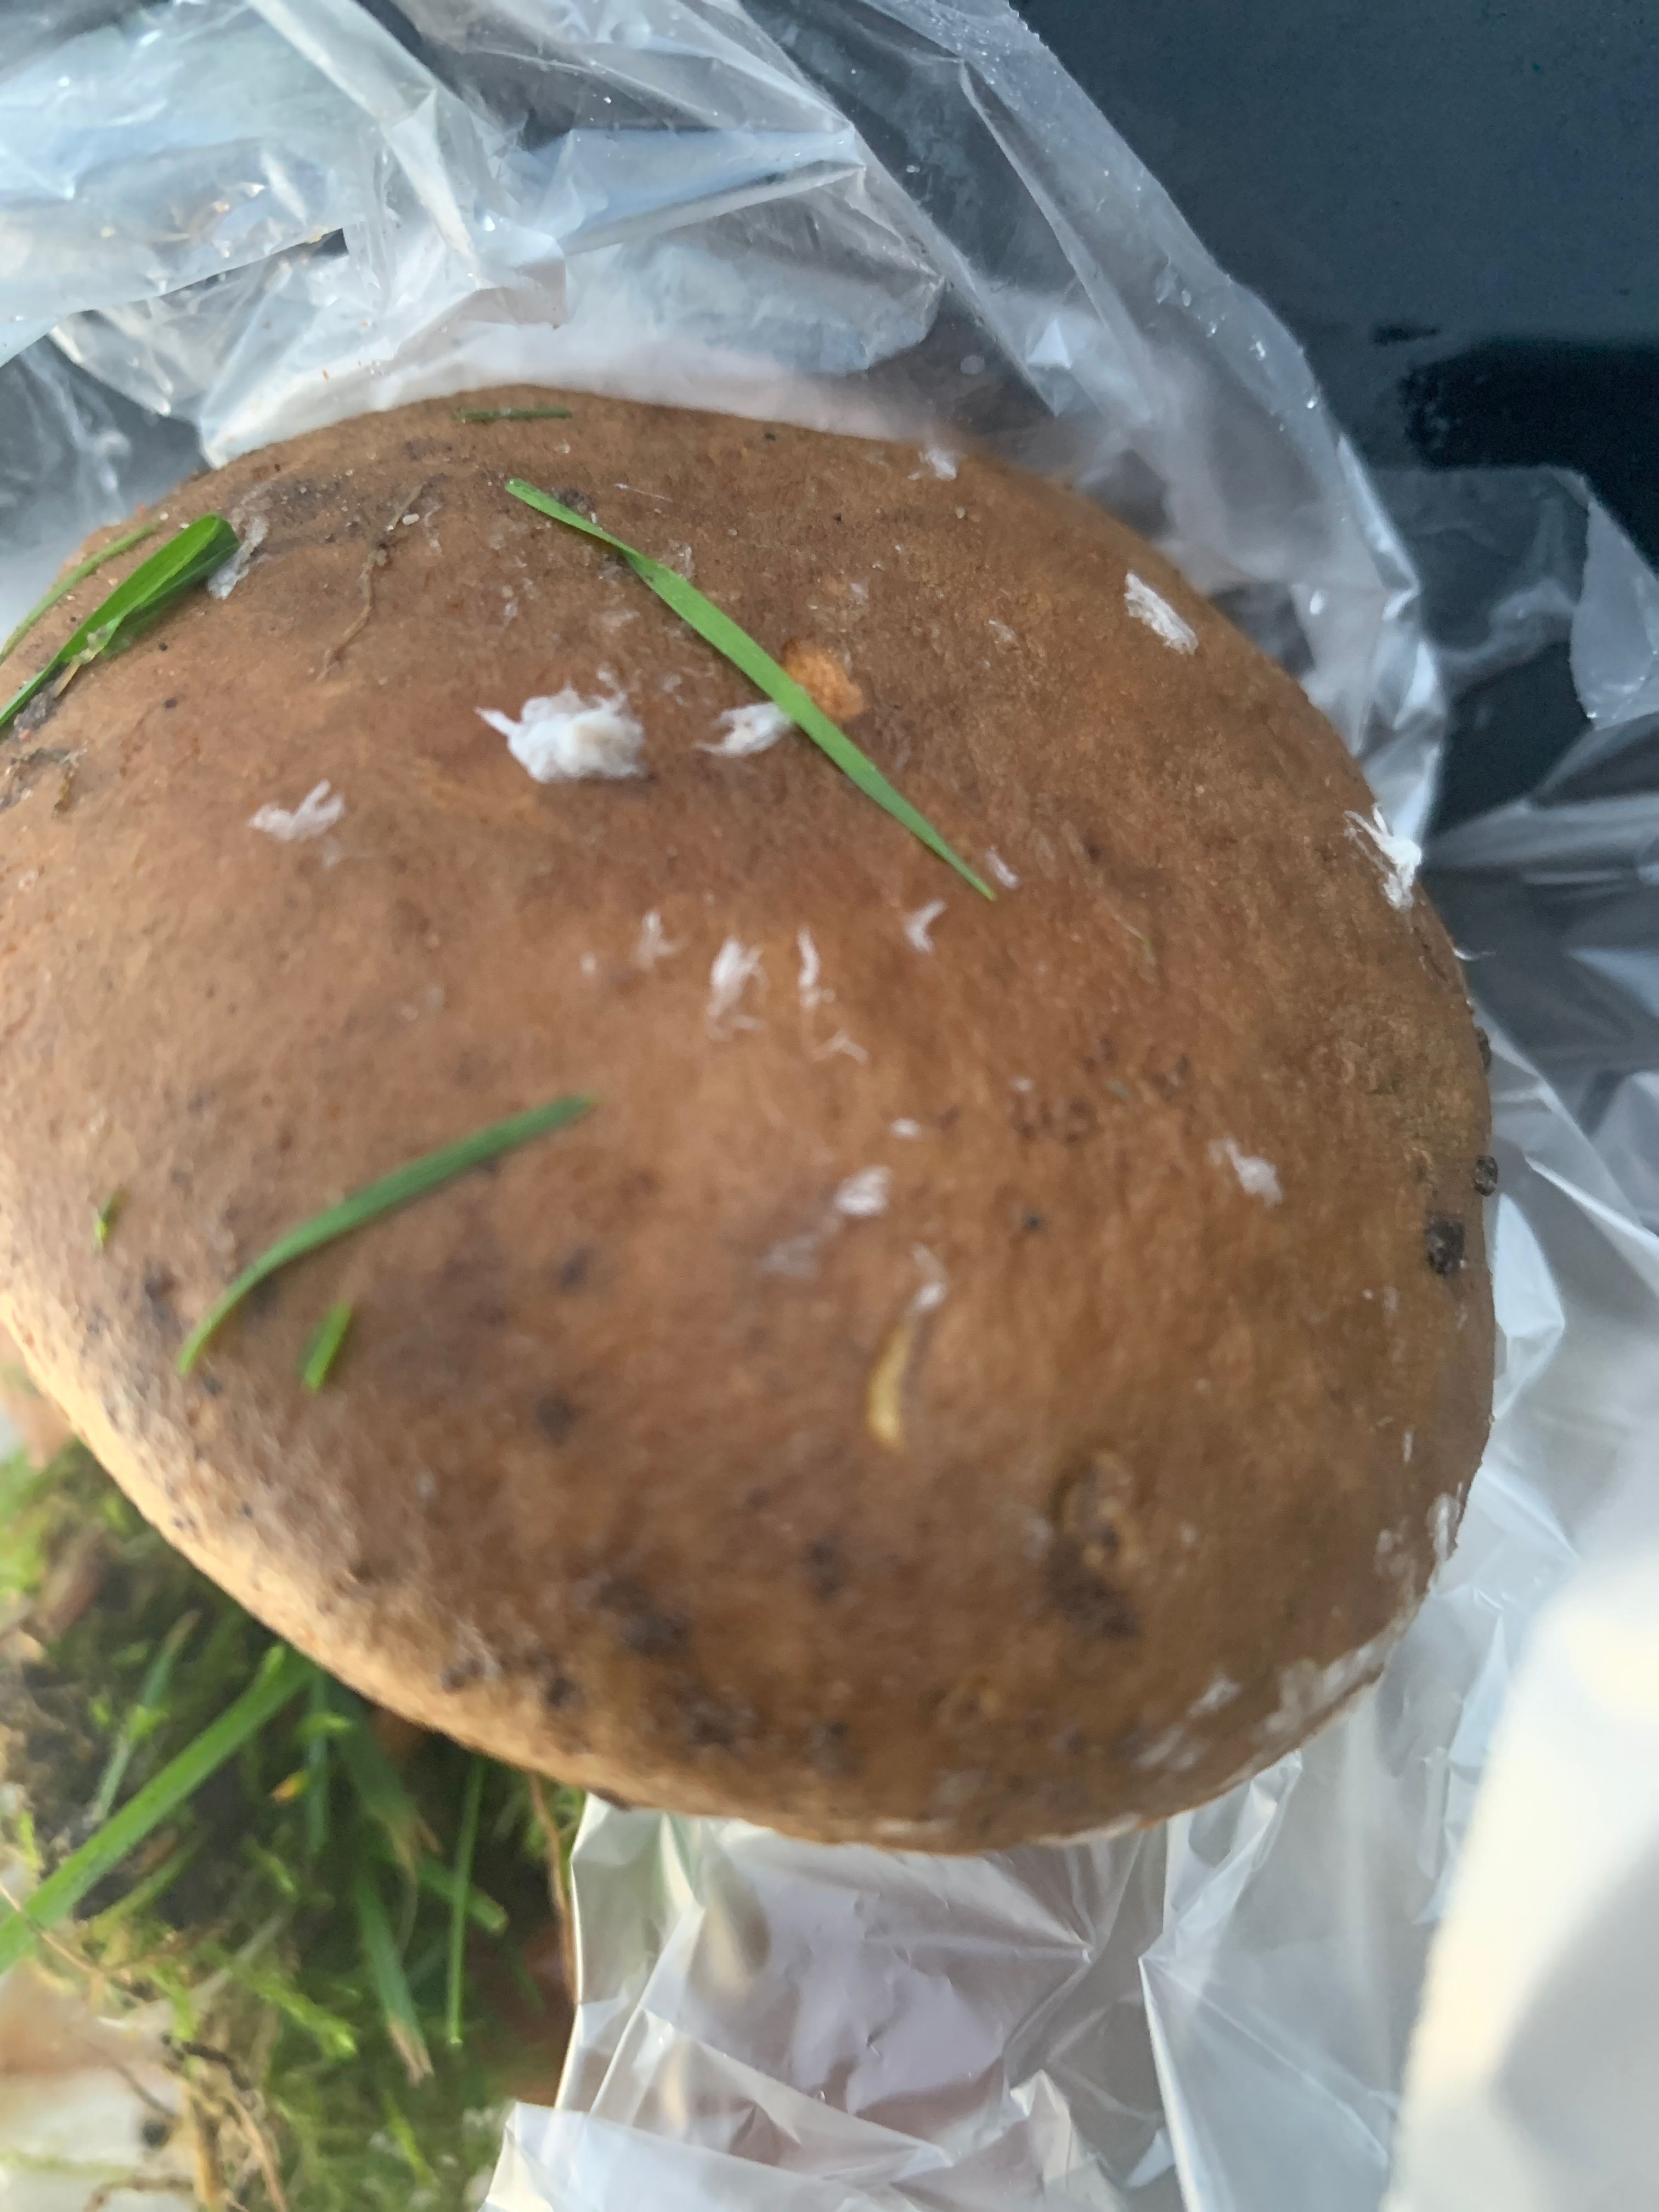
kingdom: Fungi
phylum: Basidiomycota
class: Agaricomycetes
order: Boletales
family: Boletaceae
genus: Xerocomellus
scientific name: Xerocomellus pruinatus
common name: dugget rørhat
